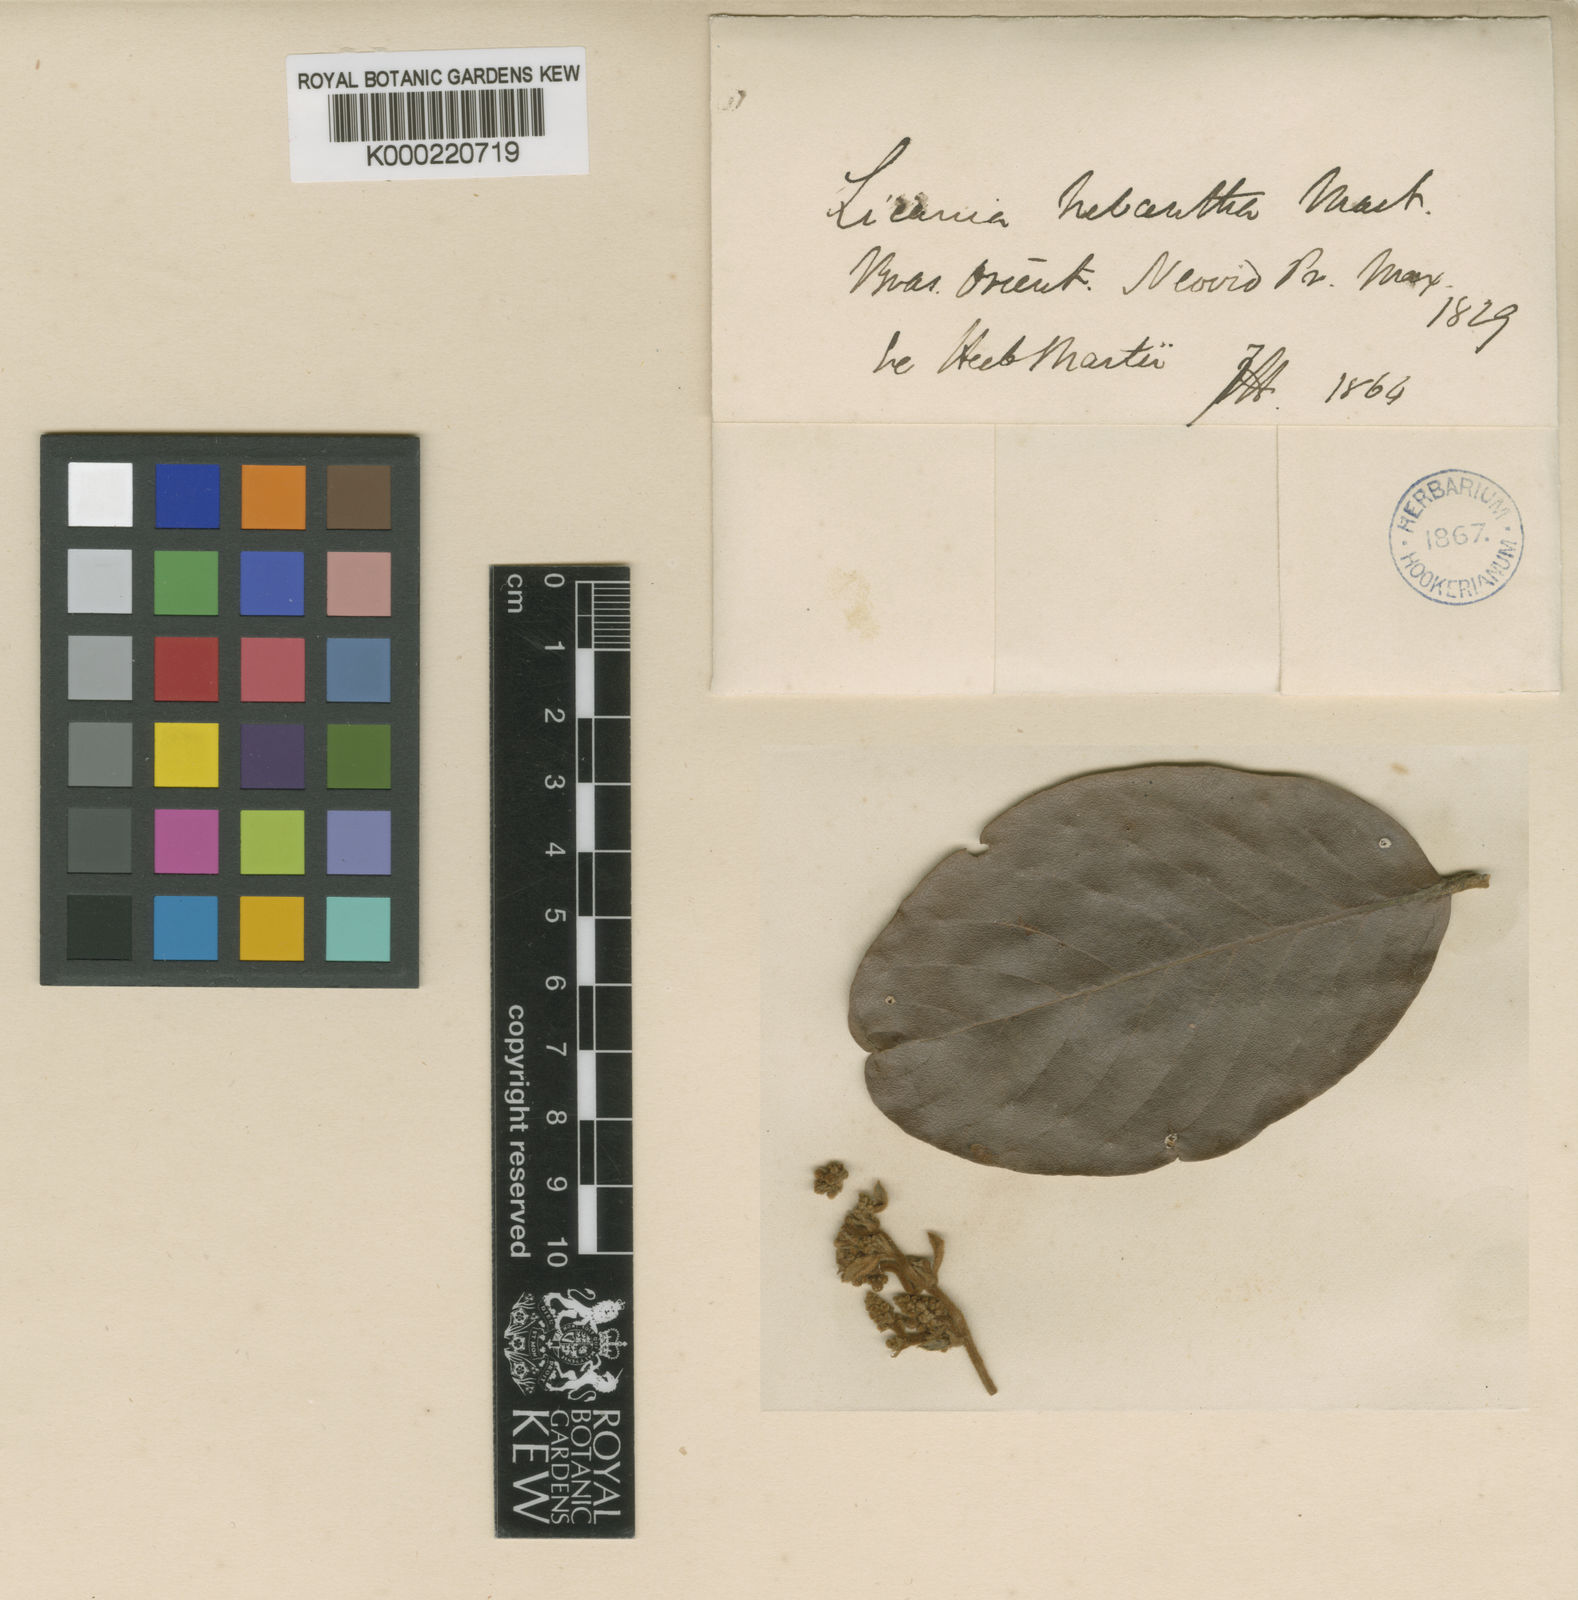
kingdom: Plantae
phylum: Tracheophyta
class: Magnoliopsida
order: Malpighiales
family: Chrysobalanaceae
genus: Licania
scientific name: Licania hebantha
